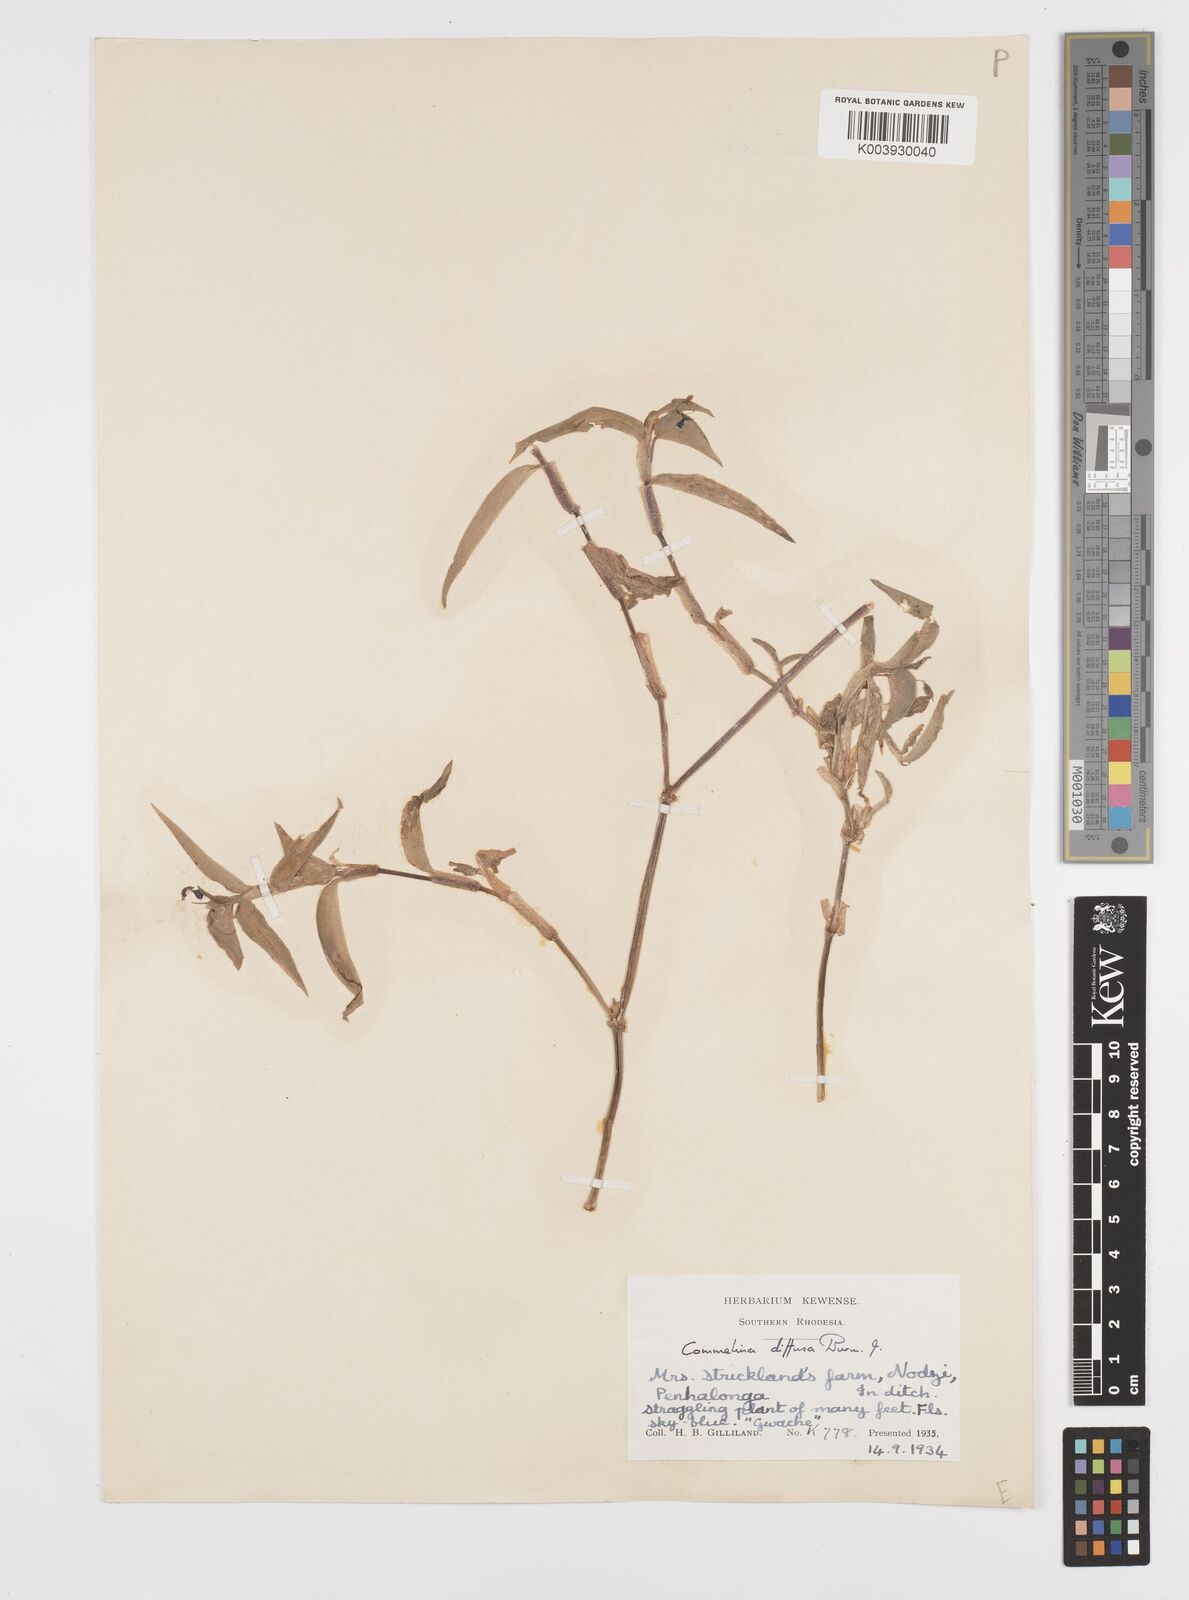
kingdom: Plantae
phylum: Tracheophyta
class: Liliopsida
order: Commelinales
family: Commelinaceae
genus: Commelina
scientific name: Commelina diffusa
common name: Climbing dayflower
